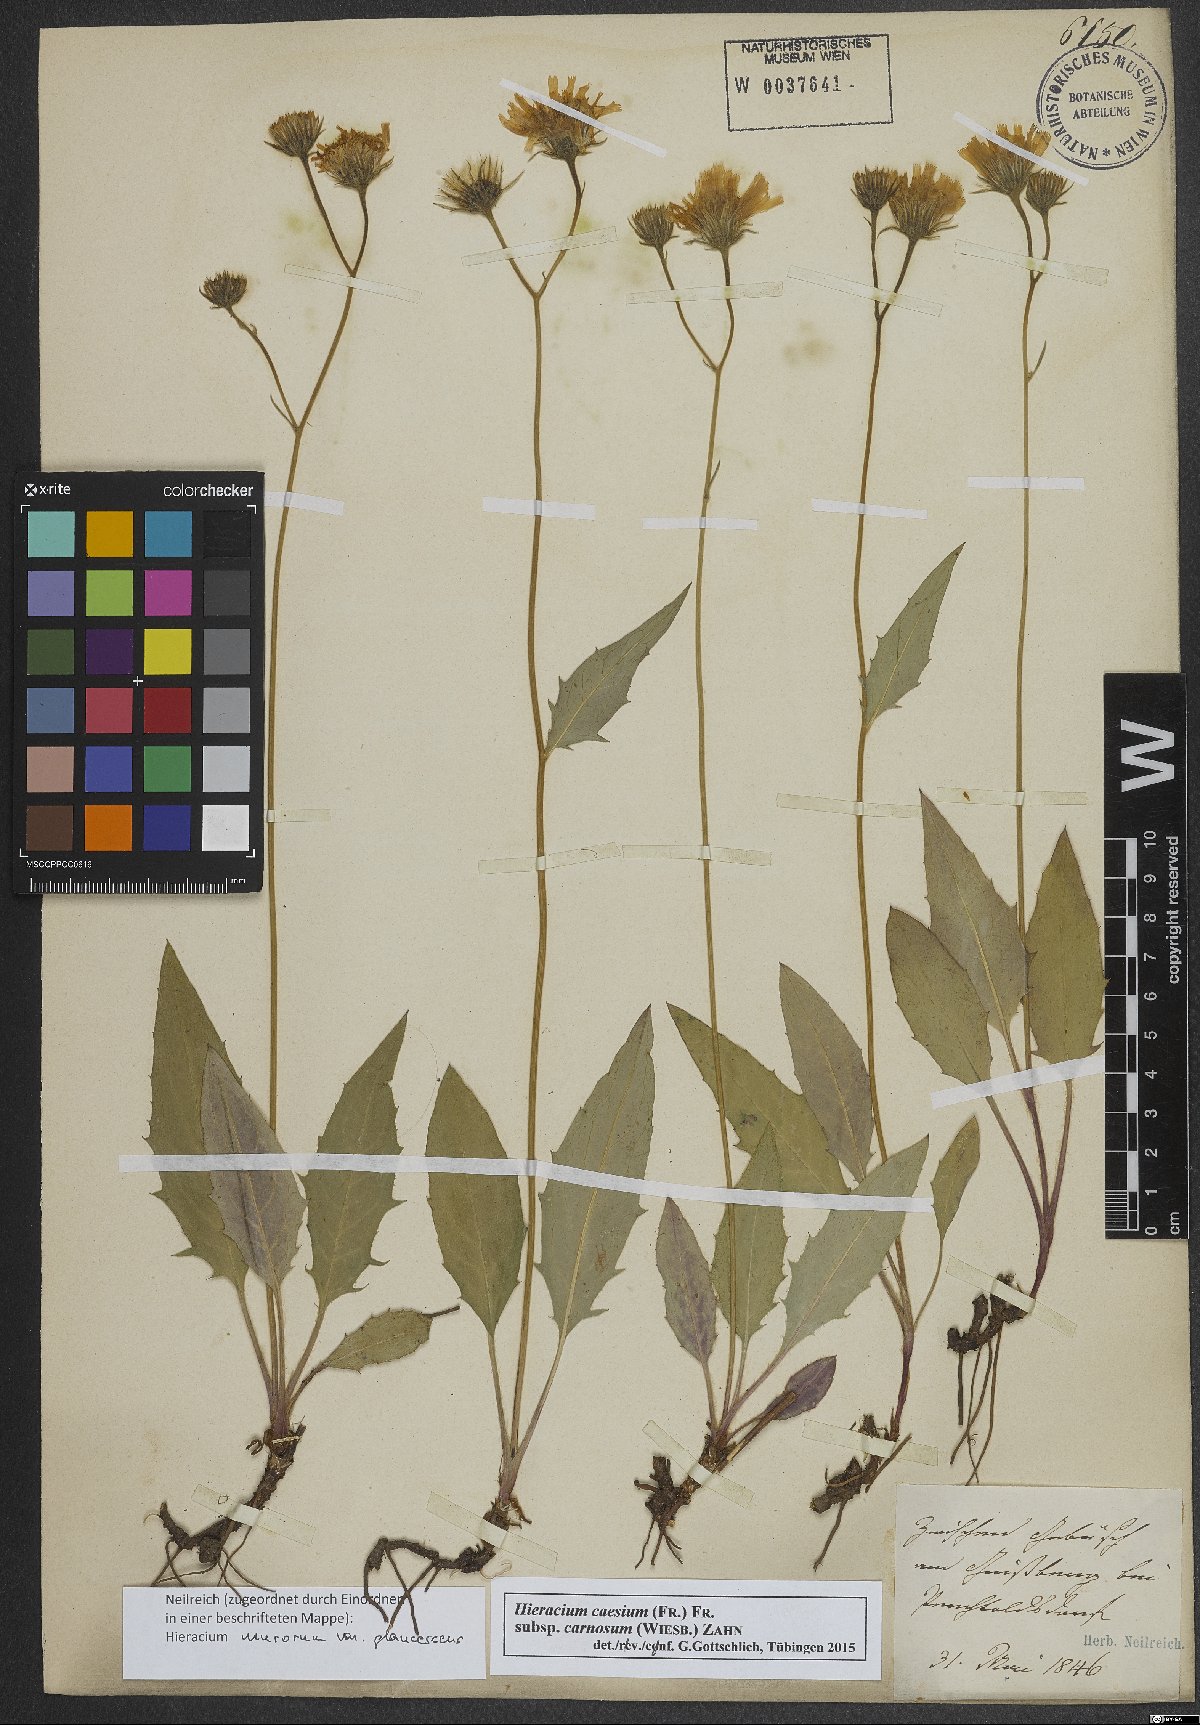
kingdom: Plantae
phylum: Tracheophyta
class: Magnoliopsida
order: Asterales
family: Asteraceae
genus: Hieracium
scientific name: Hieracium caesium
